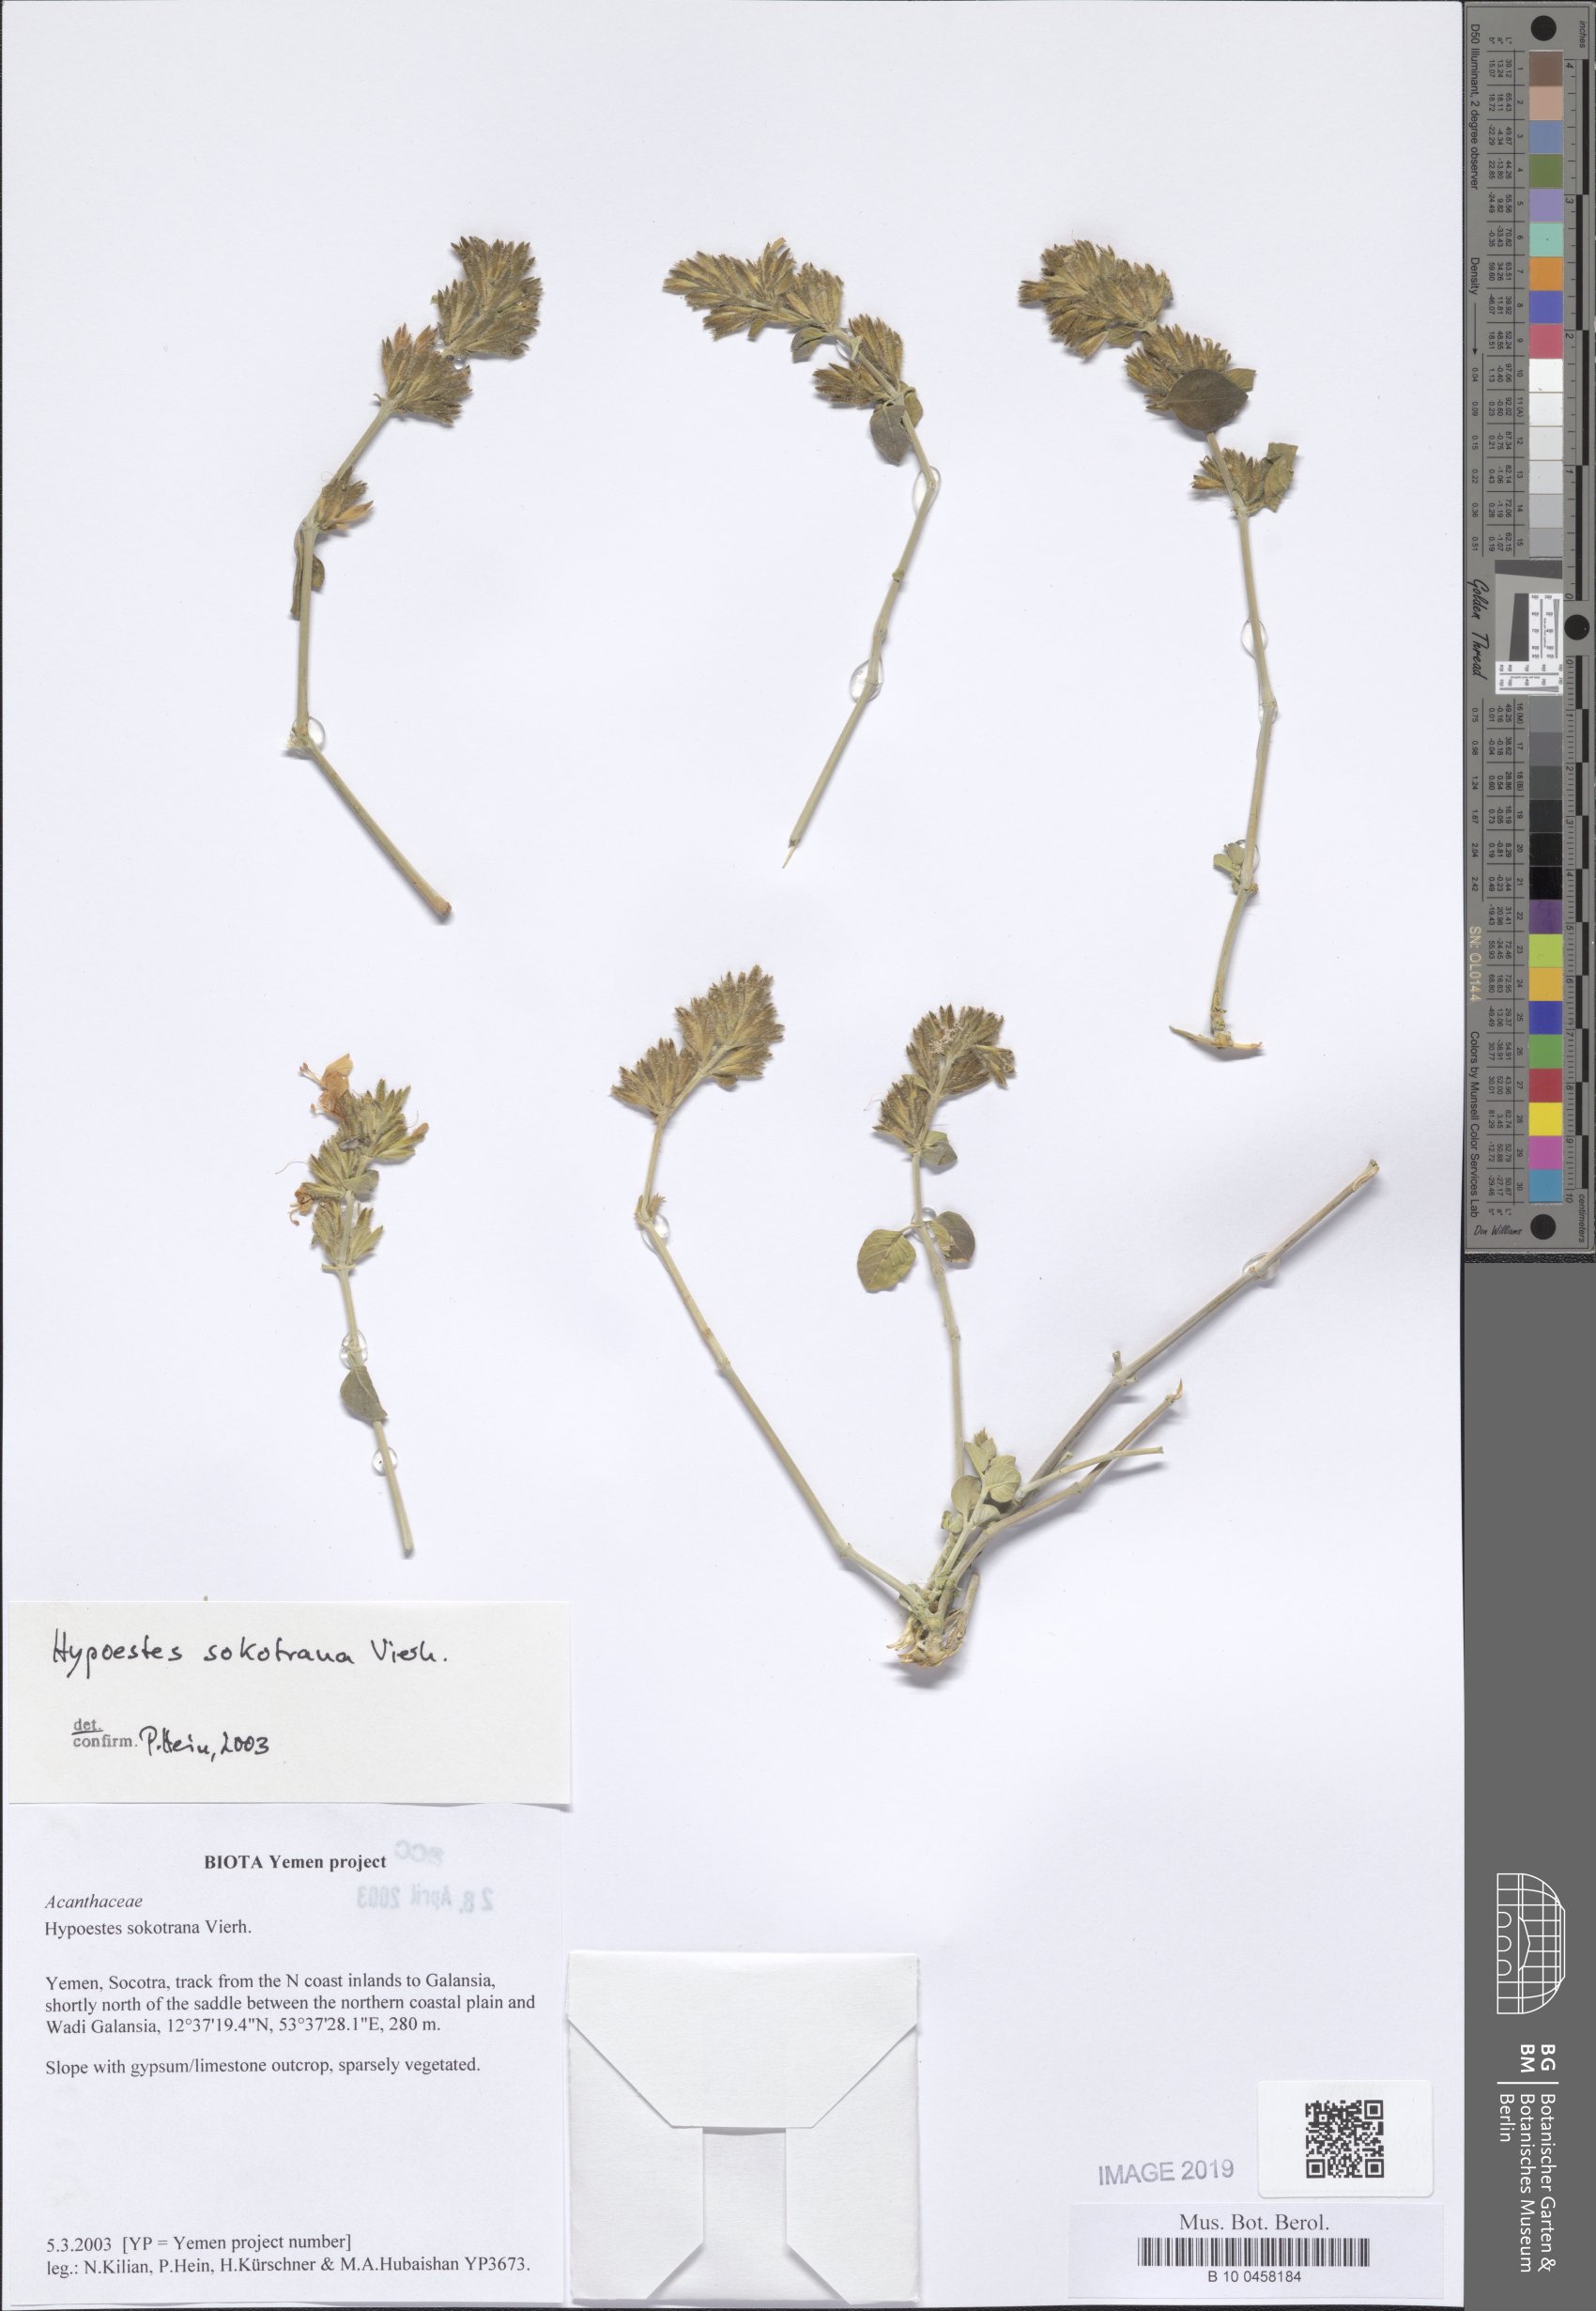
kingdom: Plantae
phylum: Tracheophyta
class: Magnoliopsida
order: Lamiales
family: Acanthaceae
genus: Hypoestes
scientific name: Hypoestes sokotrana
